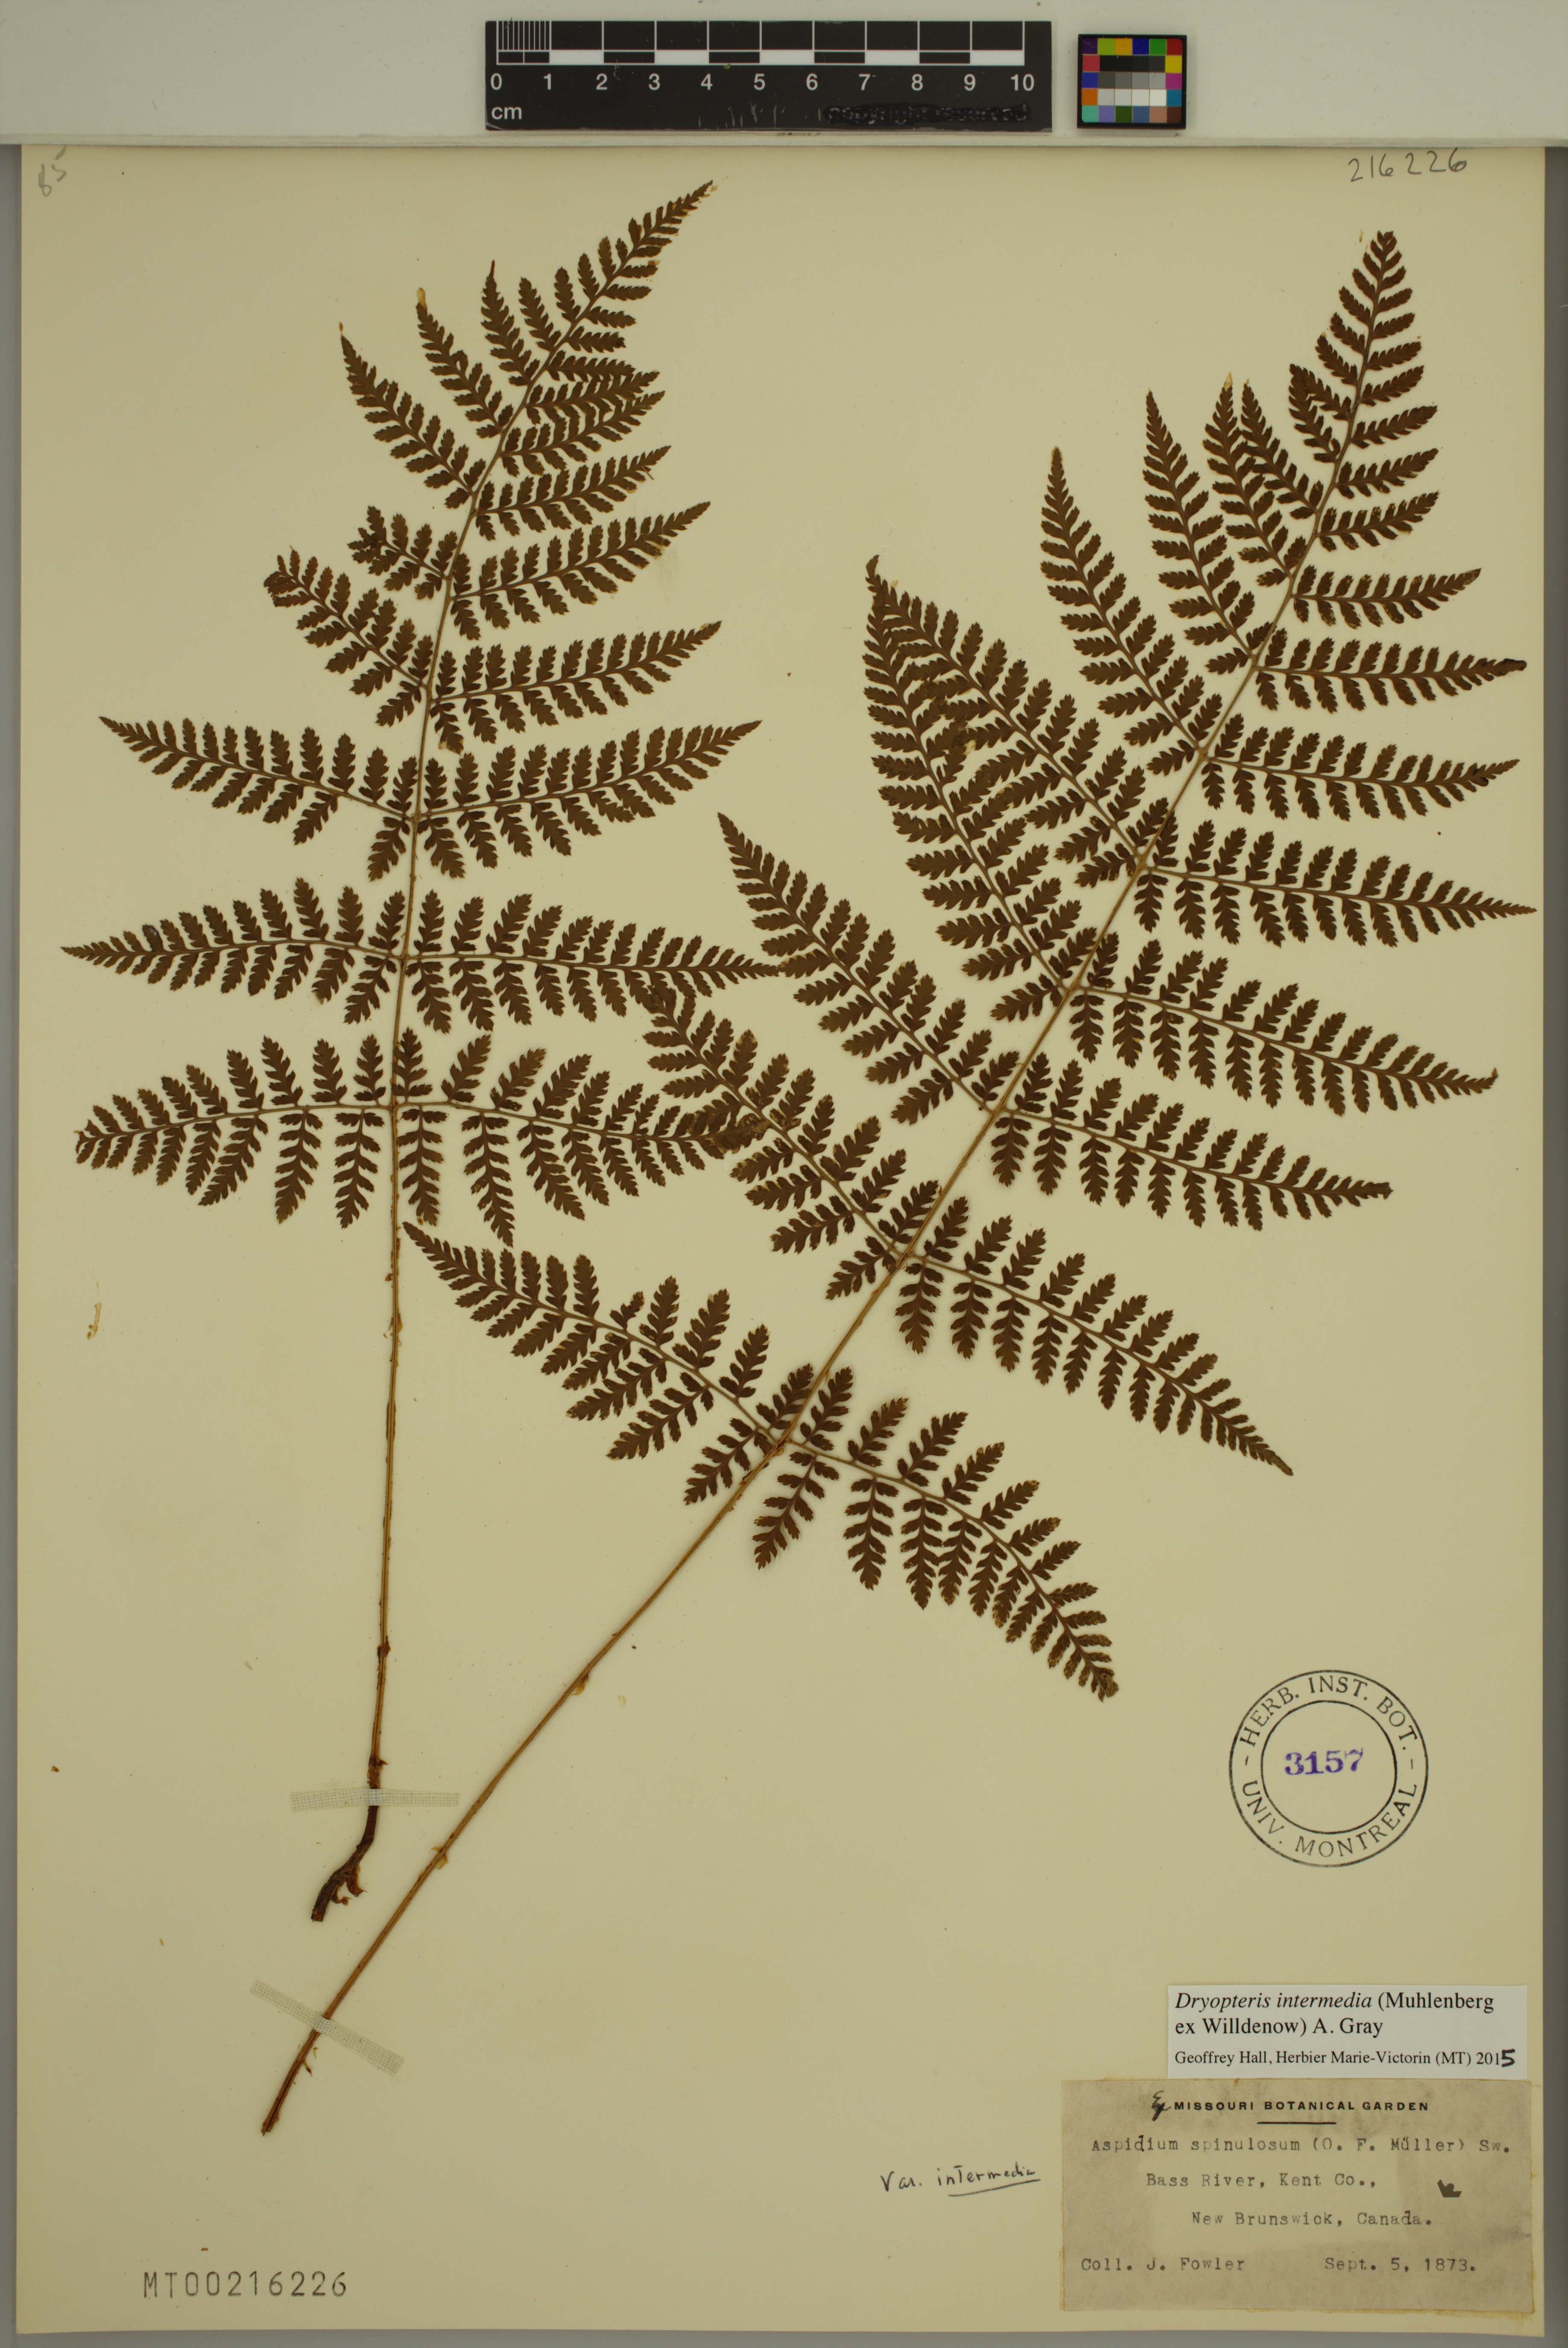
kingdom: Plantae
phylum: Tracheophyta
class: Polypodiopsida
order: Polypodiales
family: Dryopteridaceae
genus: Dryopteris
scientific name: Dryopteris intermedia
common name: Evergreen wood fern
